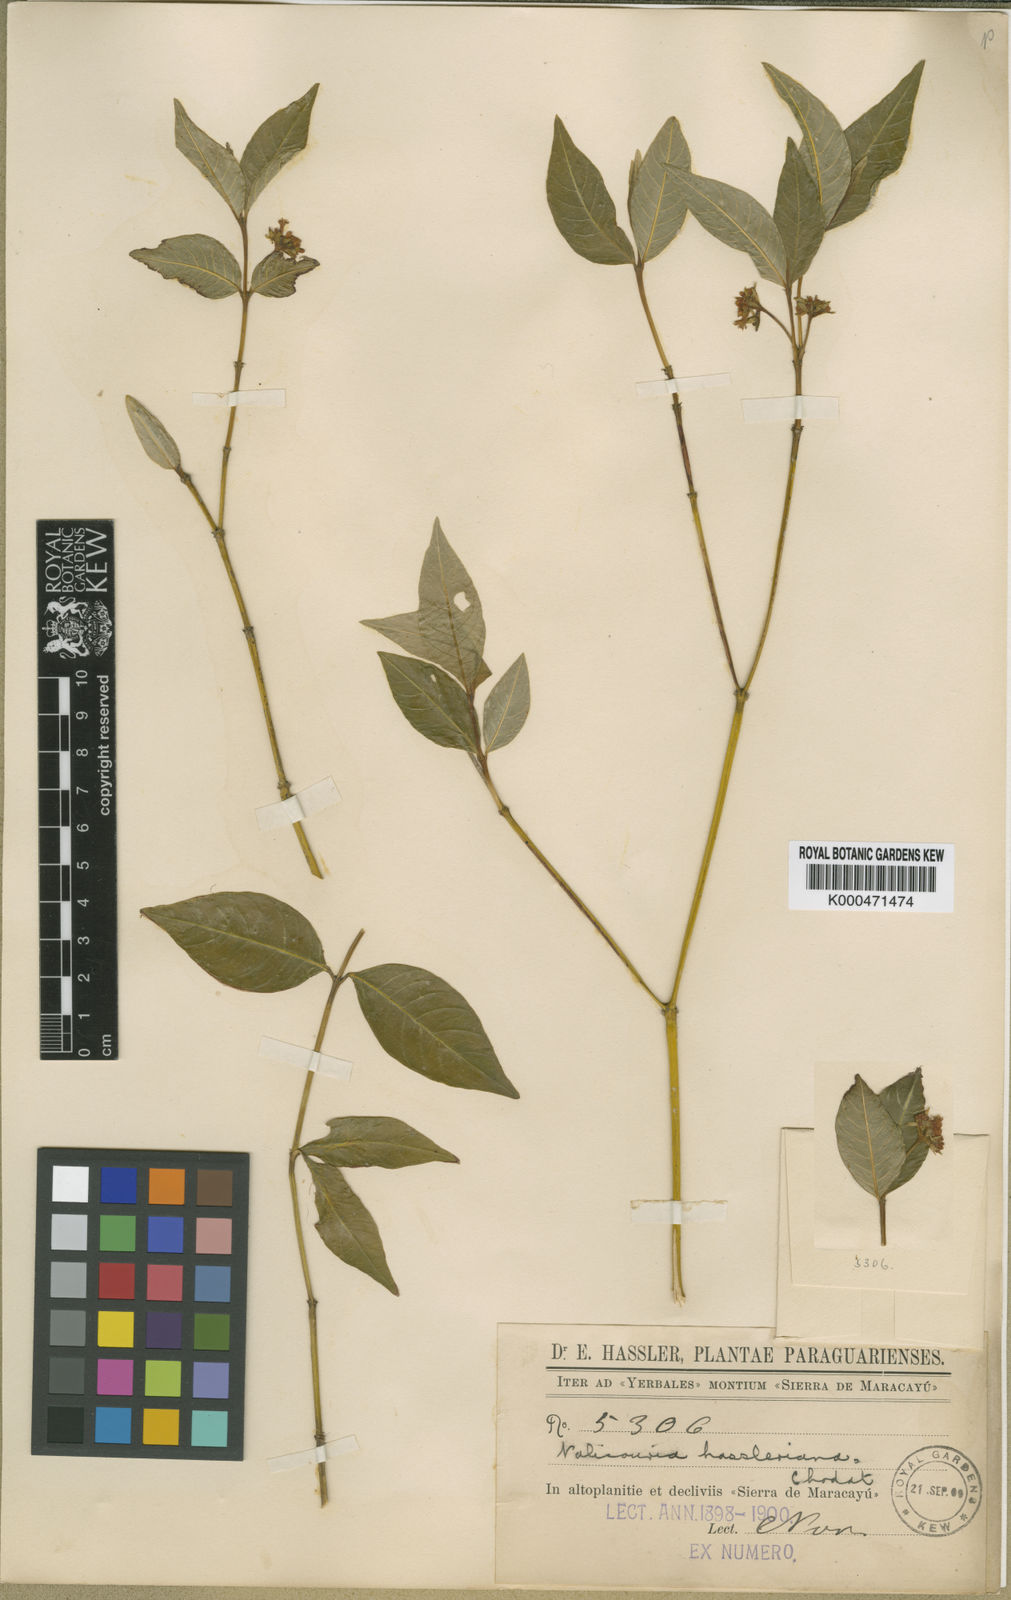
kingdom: Plantae
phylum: Tracheophyta
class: Magnoliopsida
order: Gentianales
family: Rubiaceae
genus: Psychotria
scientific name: Psychotria
